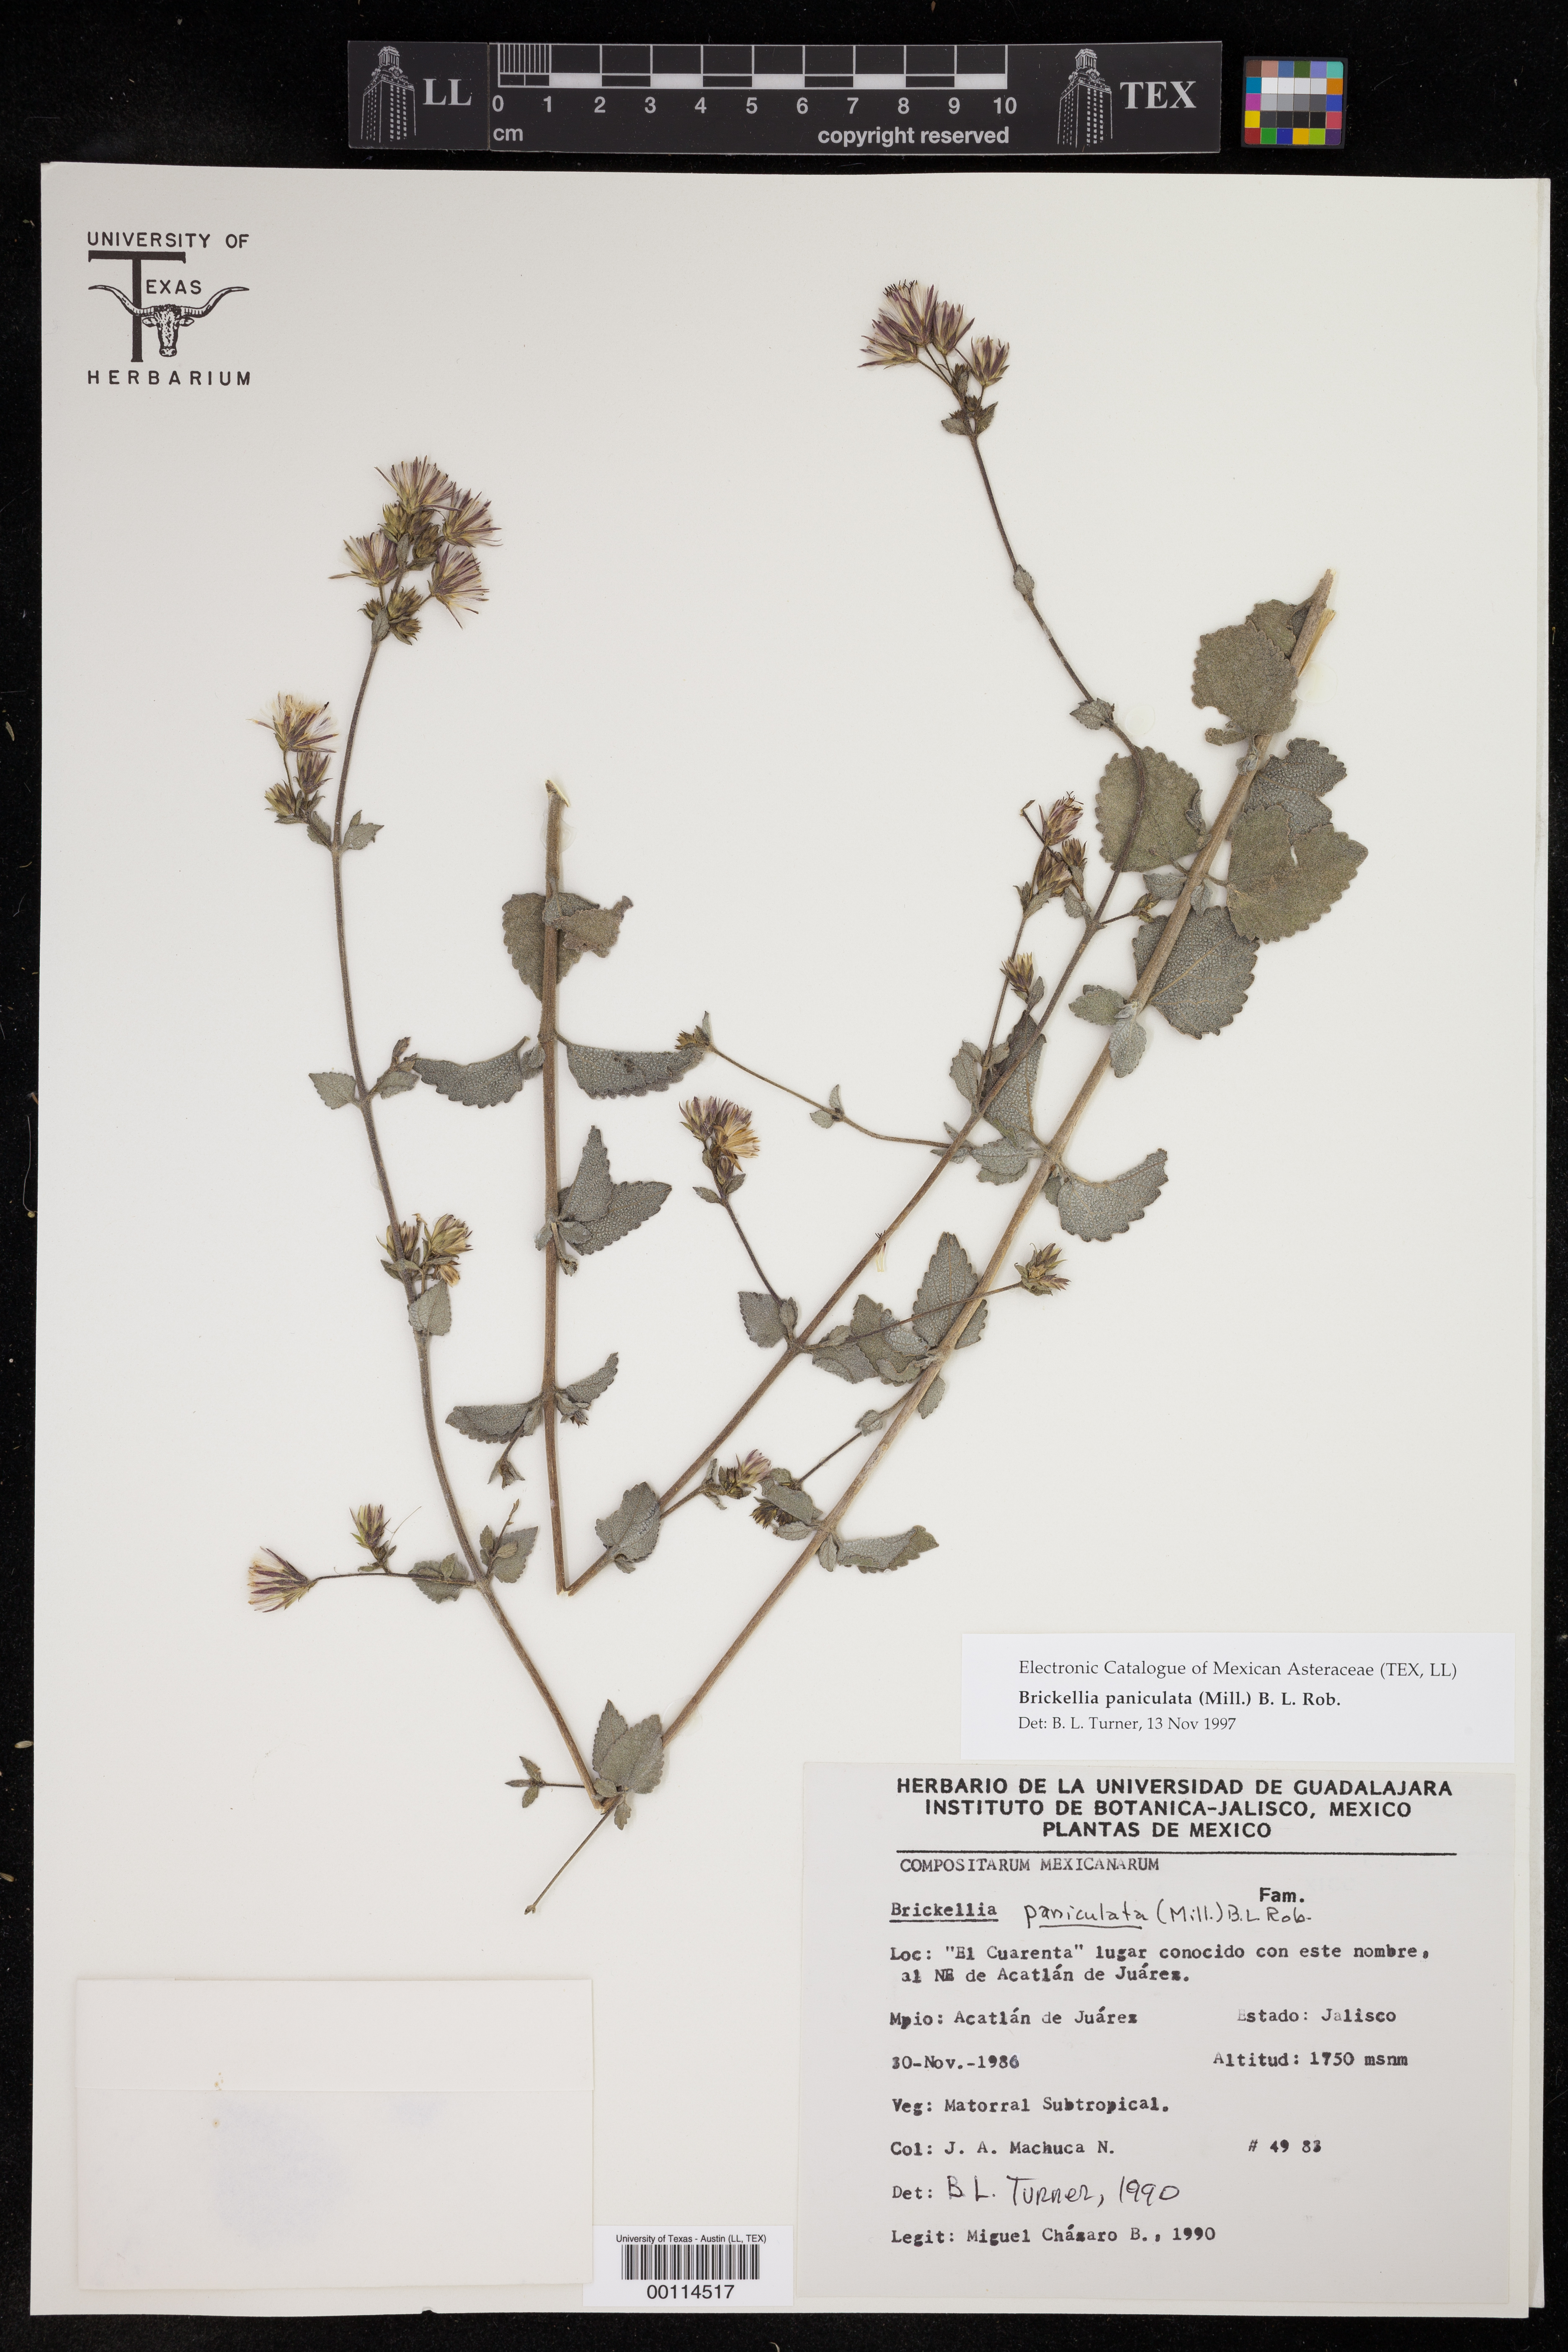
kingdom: Plantae
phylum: Tracheophyta
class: Magnoliopsida
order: Asterales
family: Asteraceae
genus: Brickellia
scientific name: Brickellia paniculata
